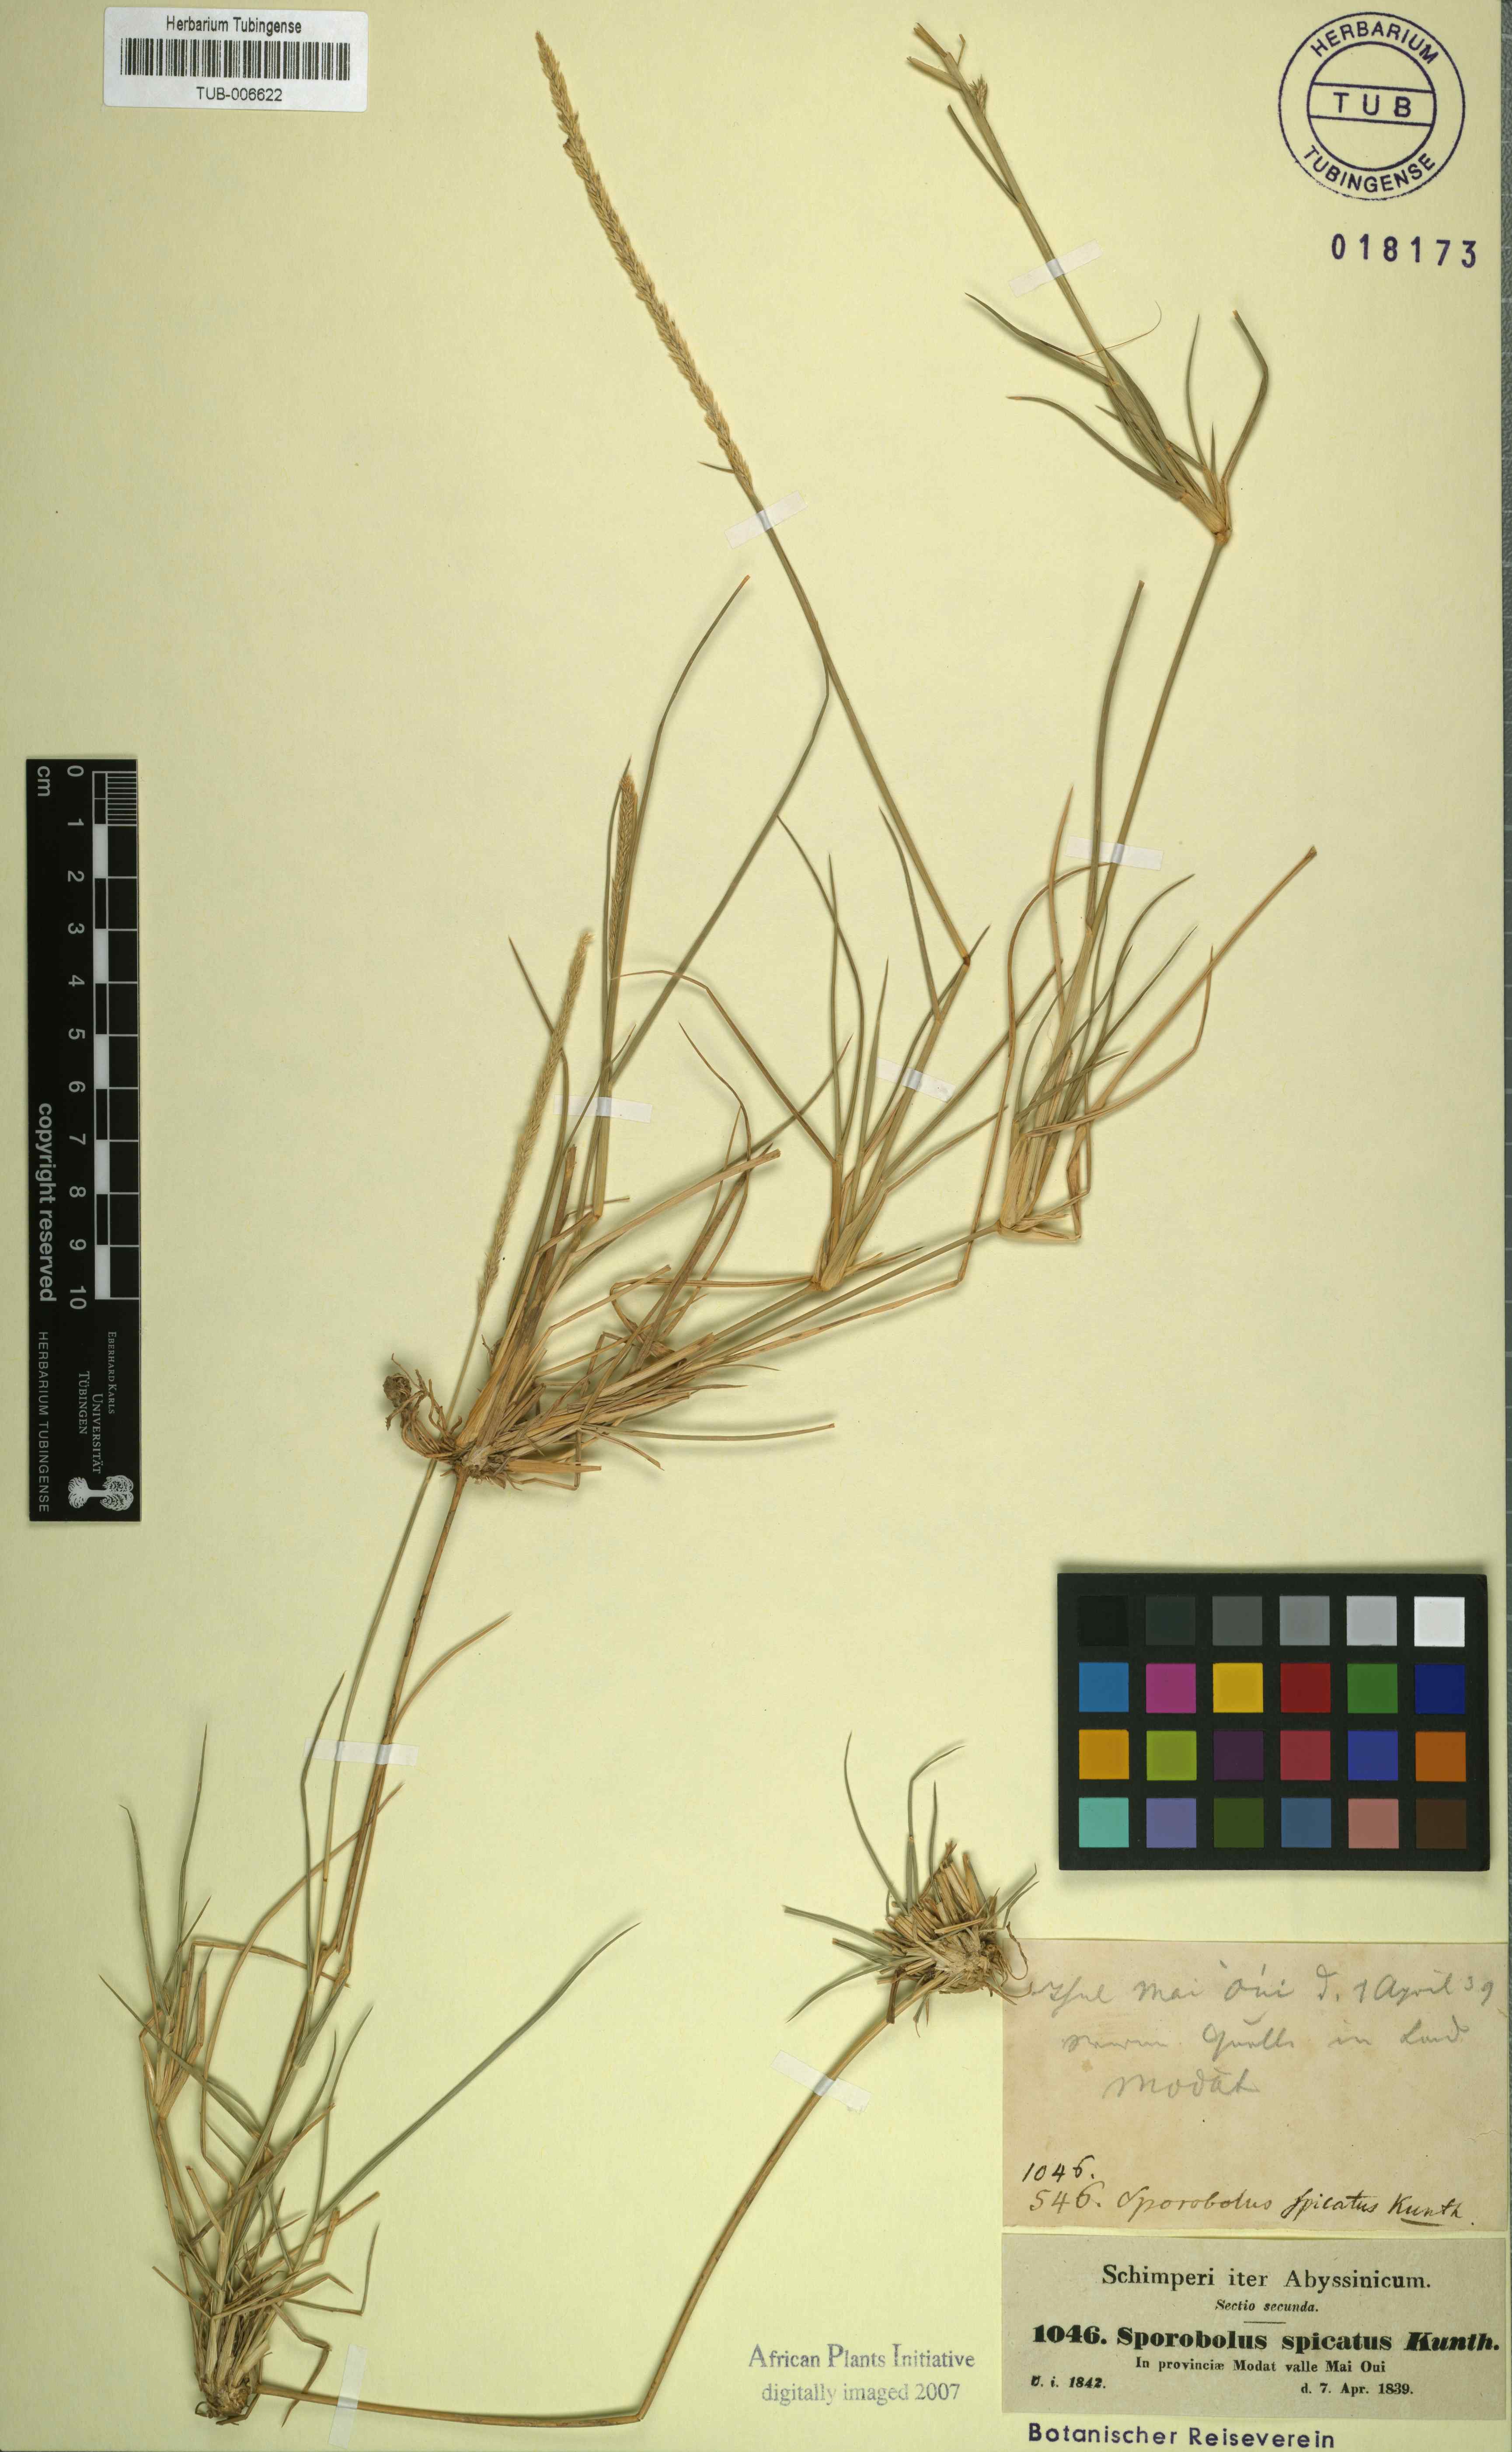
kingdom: Plantae
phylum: Tracheophyta
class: Liliopsida
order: Poales
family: Poaceae
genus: Sporobolus
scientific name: Sporobolus spicatus
